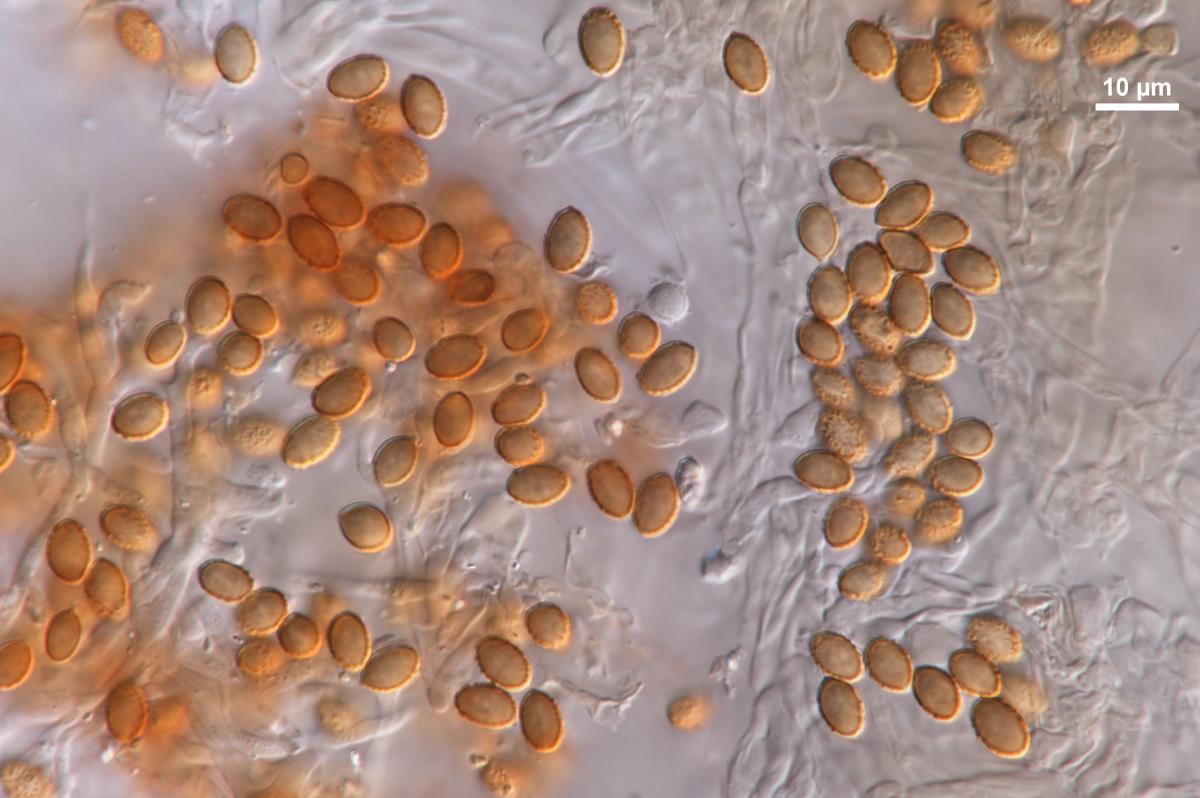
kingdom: Fungi
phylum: Basidiomycota
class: Agaricomycetes
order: Agaricales
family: Bolbitiaceae
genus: Descolea
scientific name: Descolea gunnii
